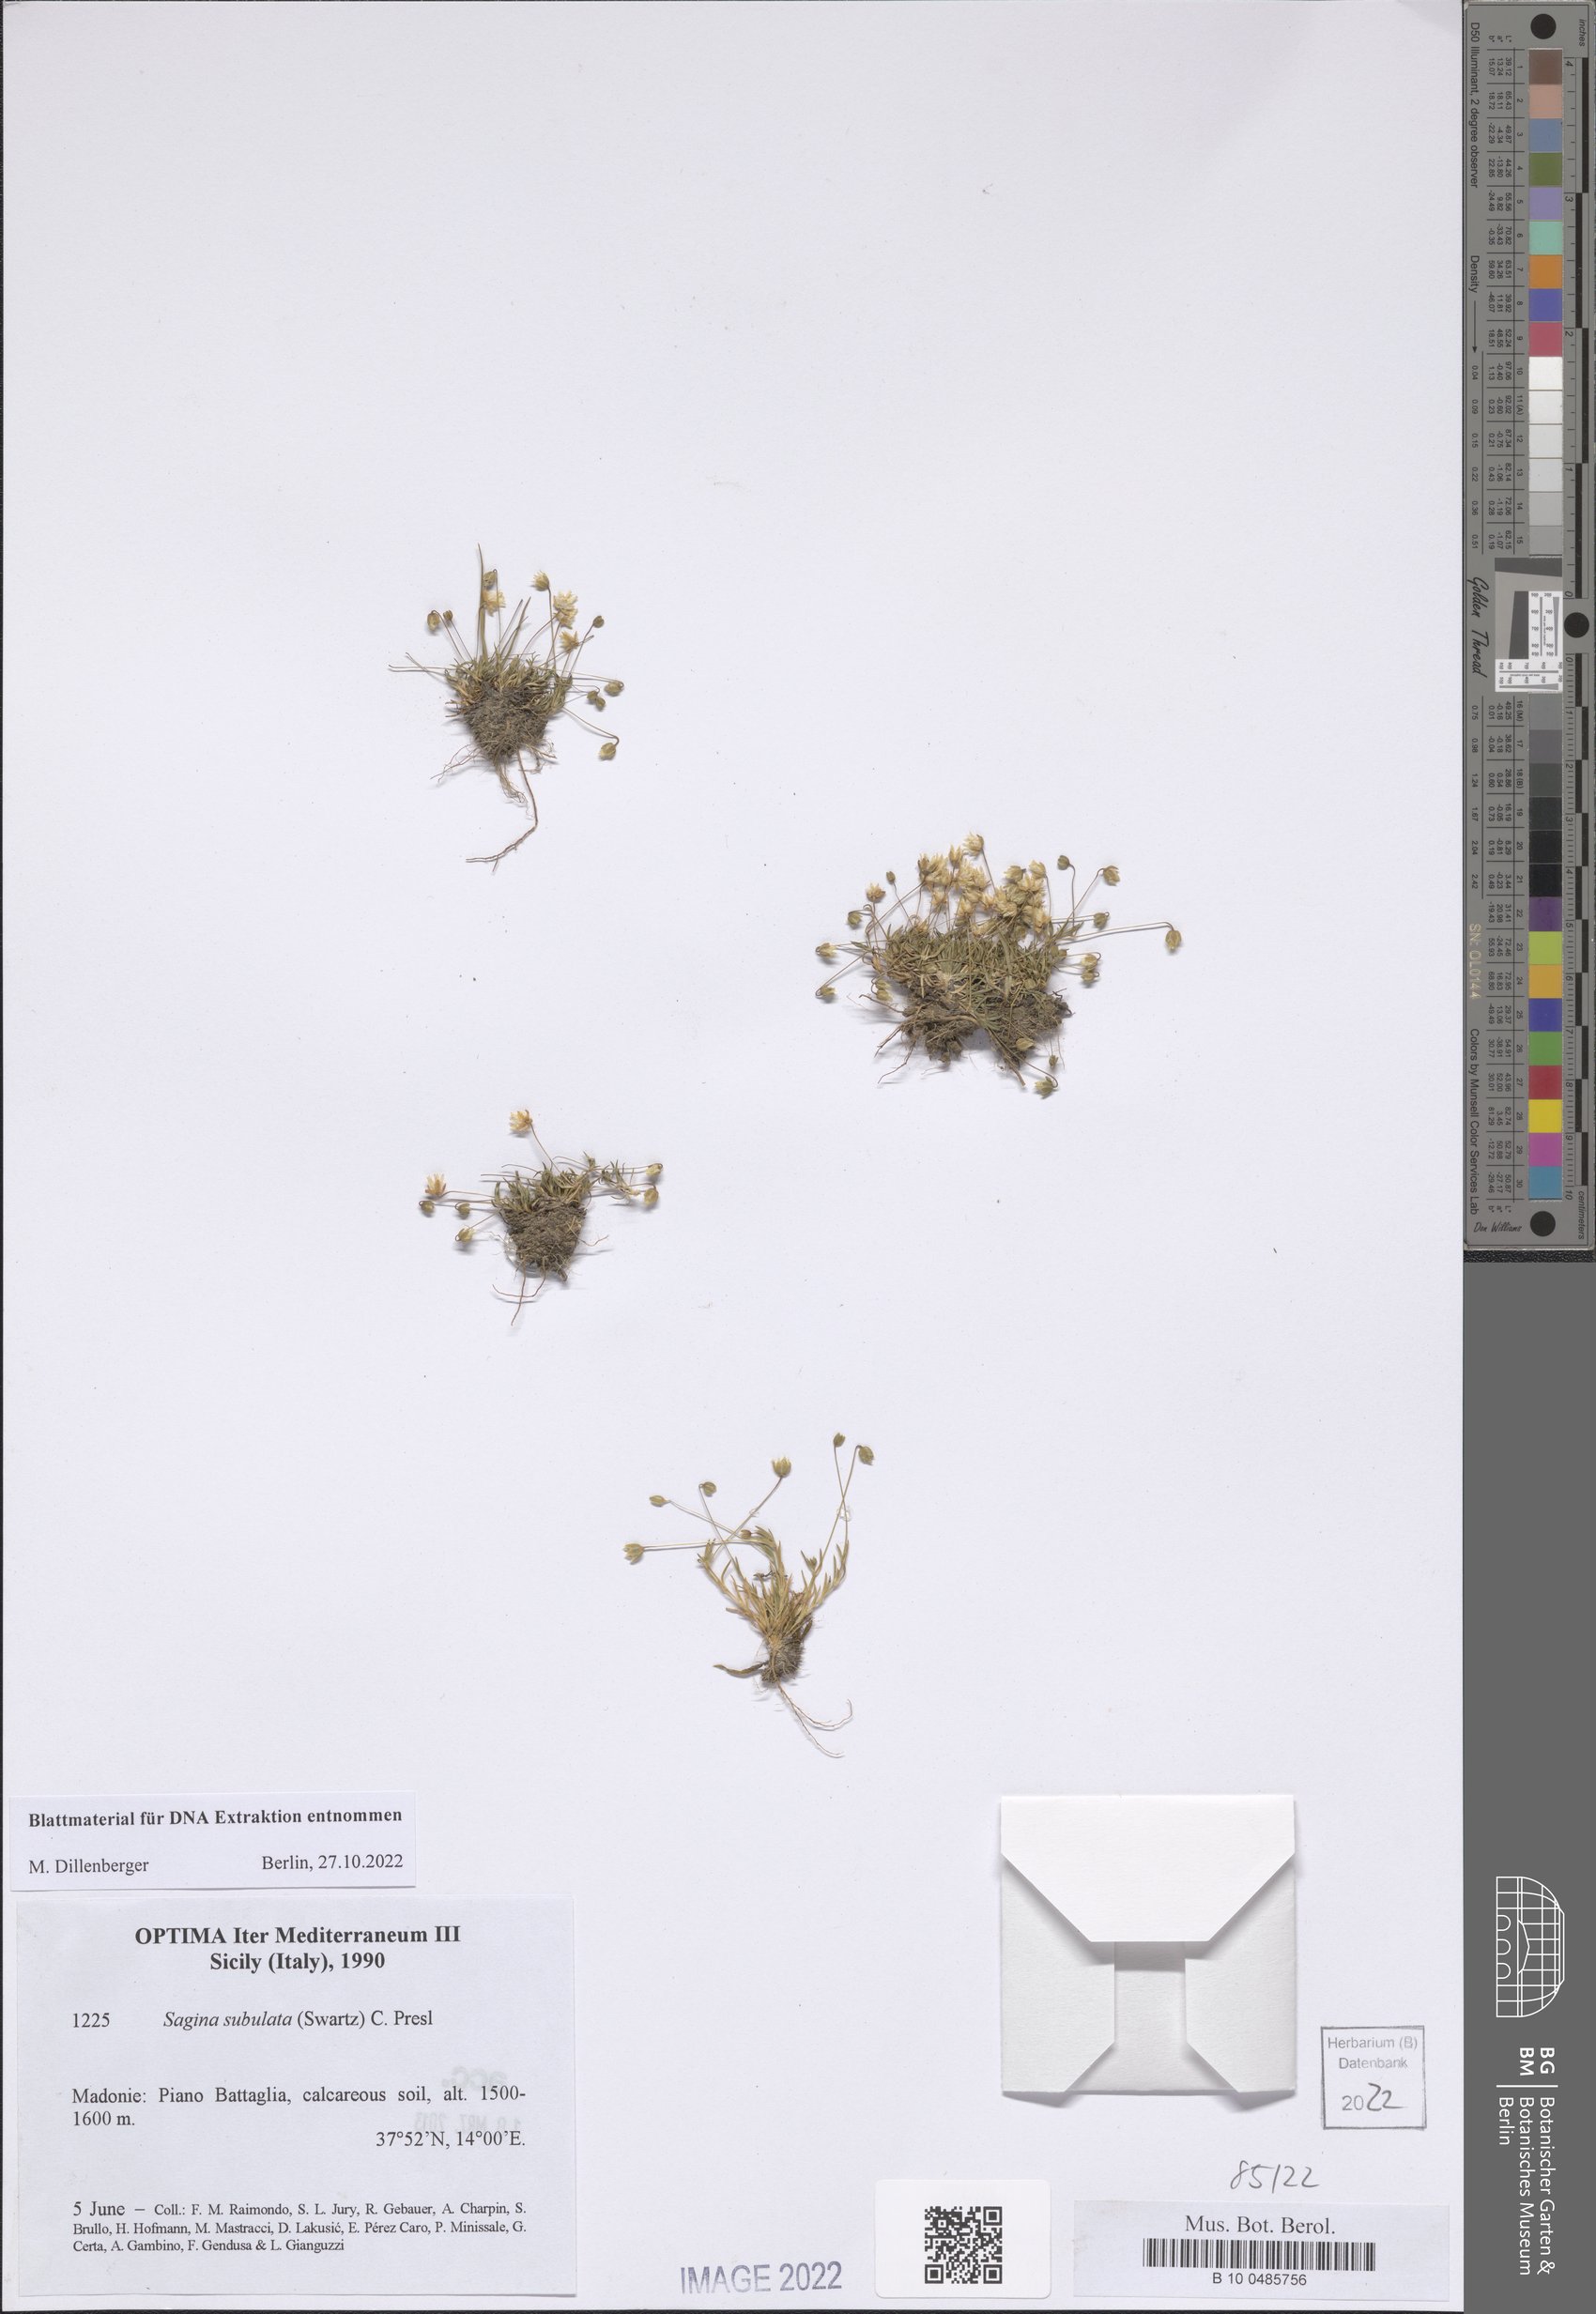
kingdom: Plantae
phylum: Tracheophyta
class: Magnoliopsida
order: Caryophyllales
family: Caryophyllaceae
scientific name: Caryophyllaceae
